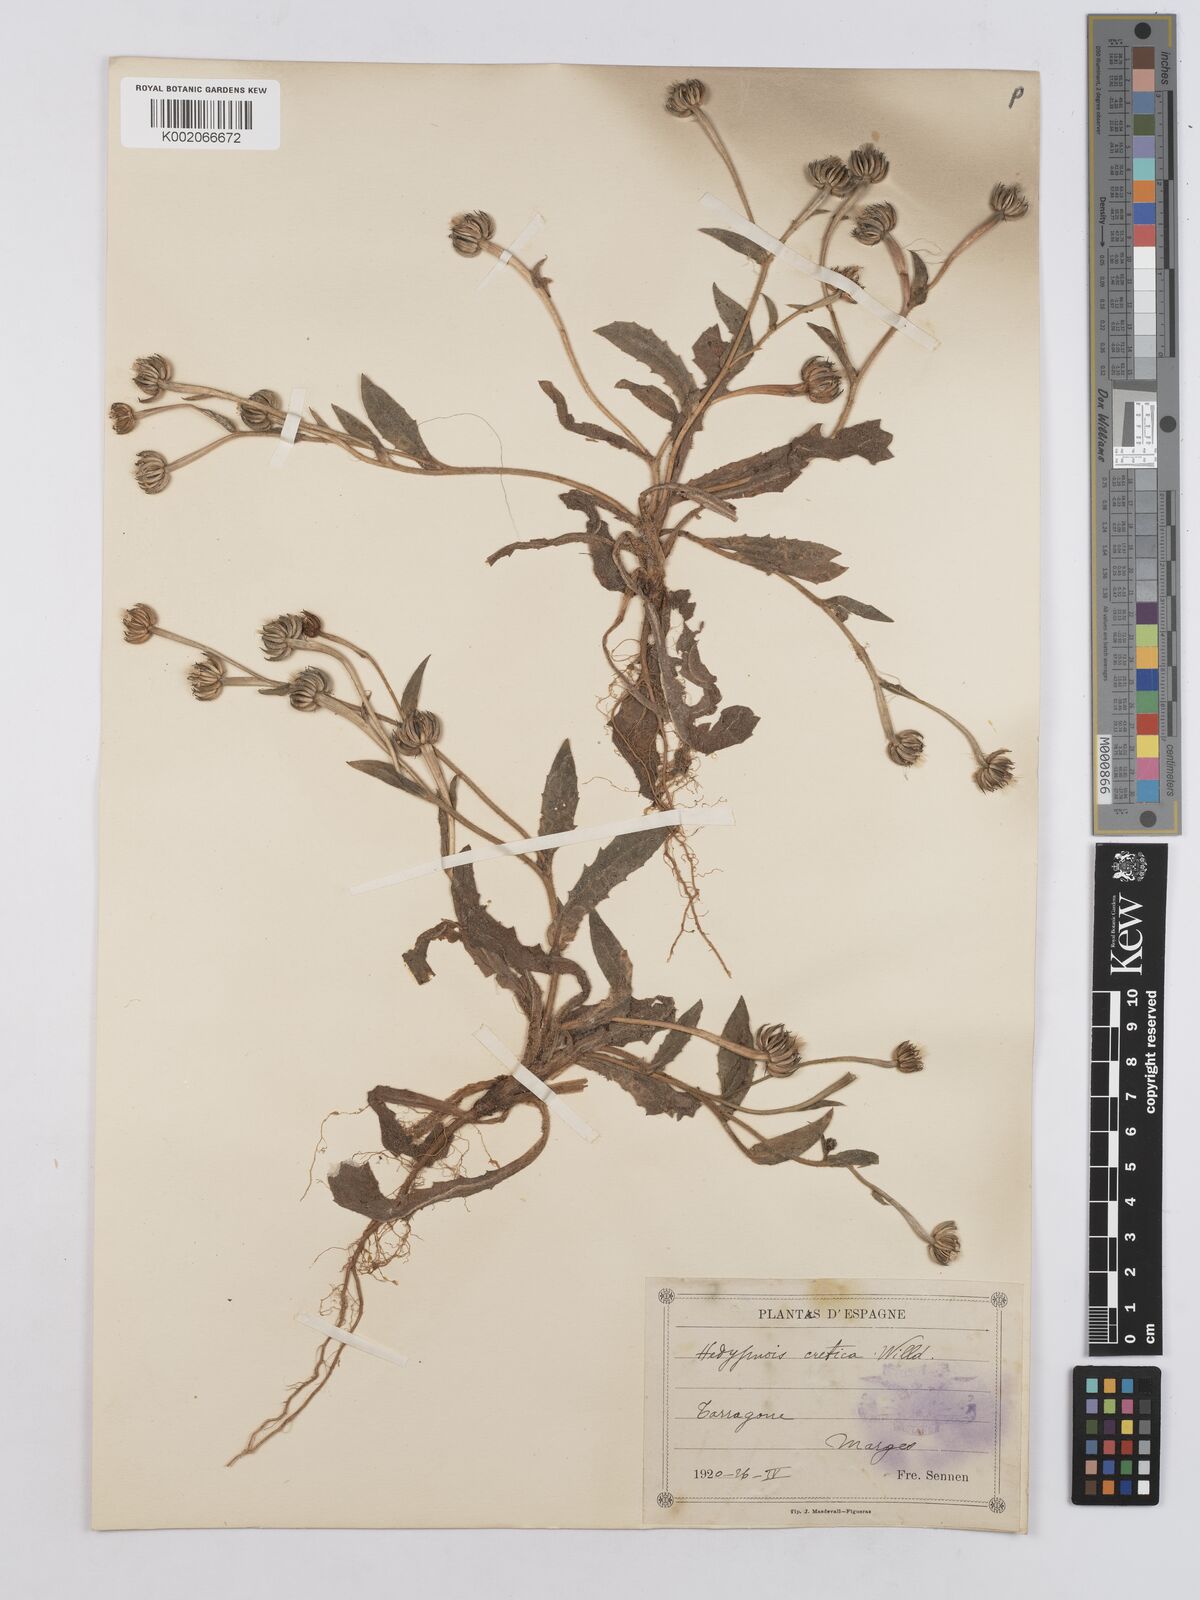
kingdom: Plantae
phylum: Tracheophyta
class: Magnoliopsida
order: Asterales
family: Asteraceae
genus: Hedypnois
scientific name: Hedypnois cretica
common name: Scaly hawkbit
